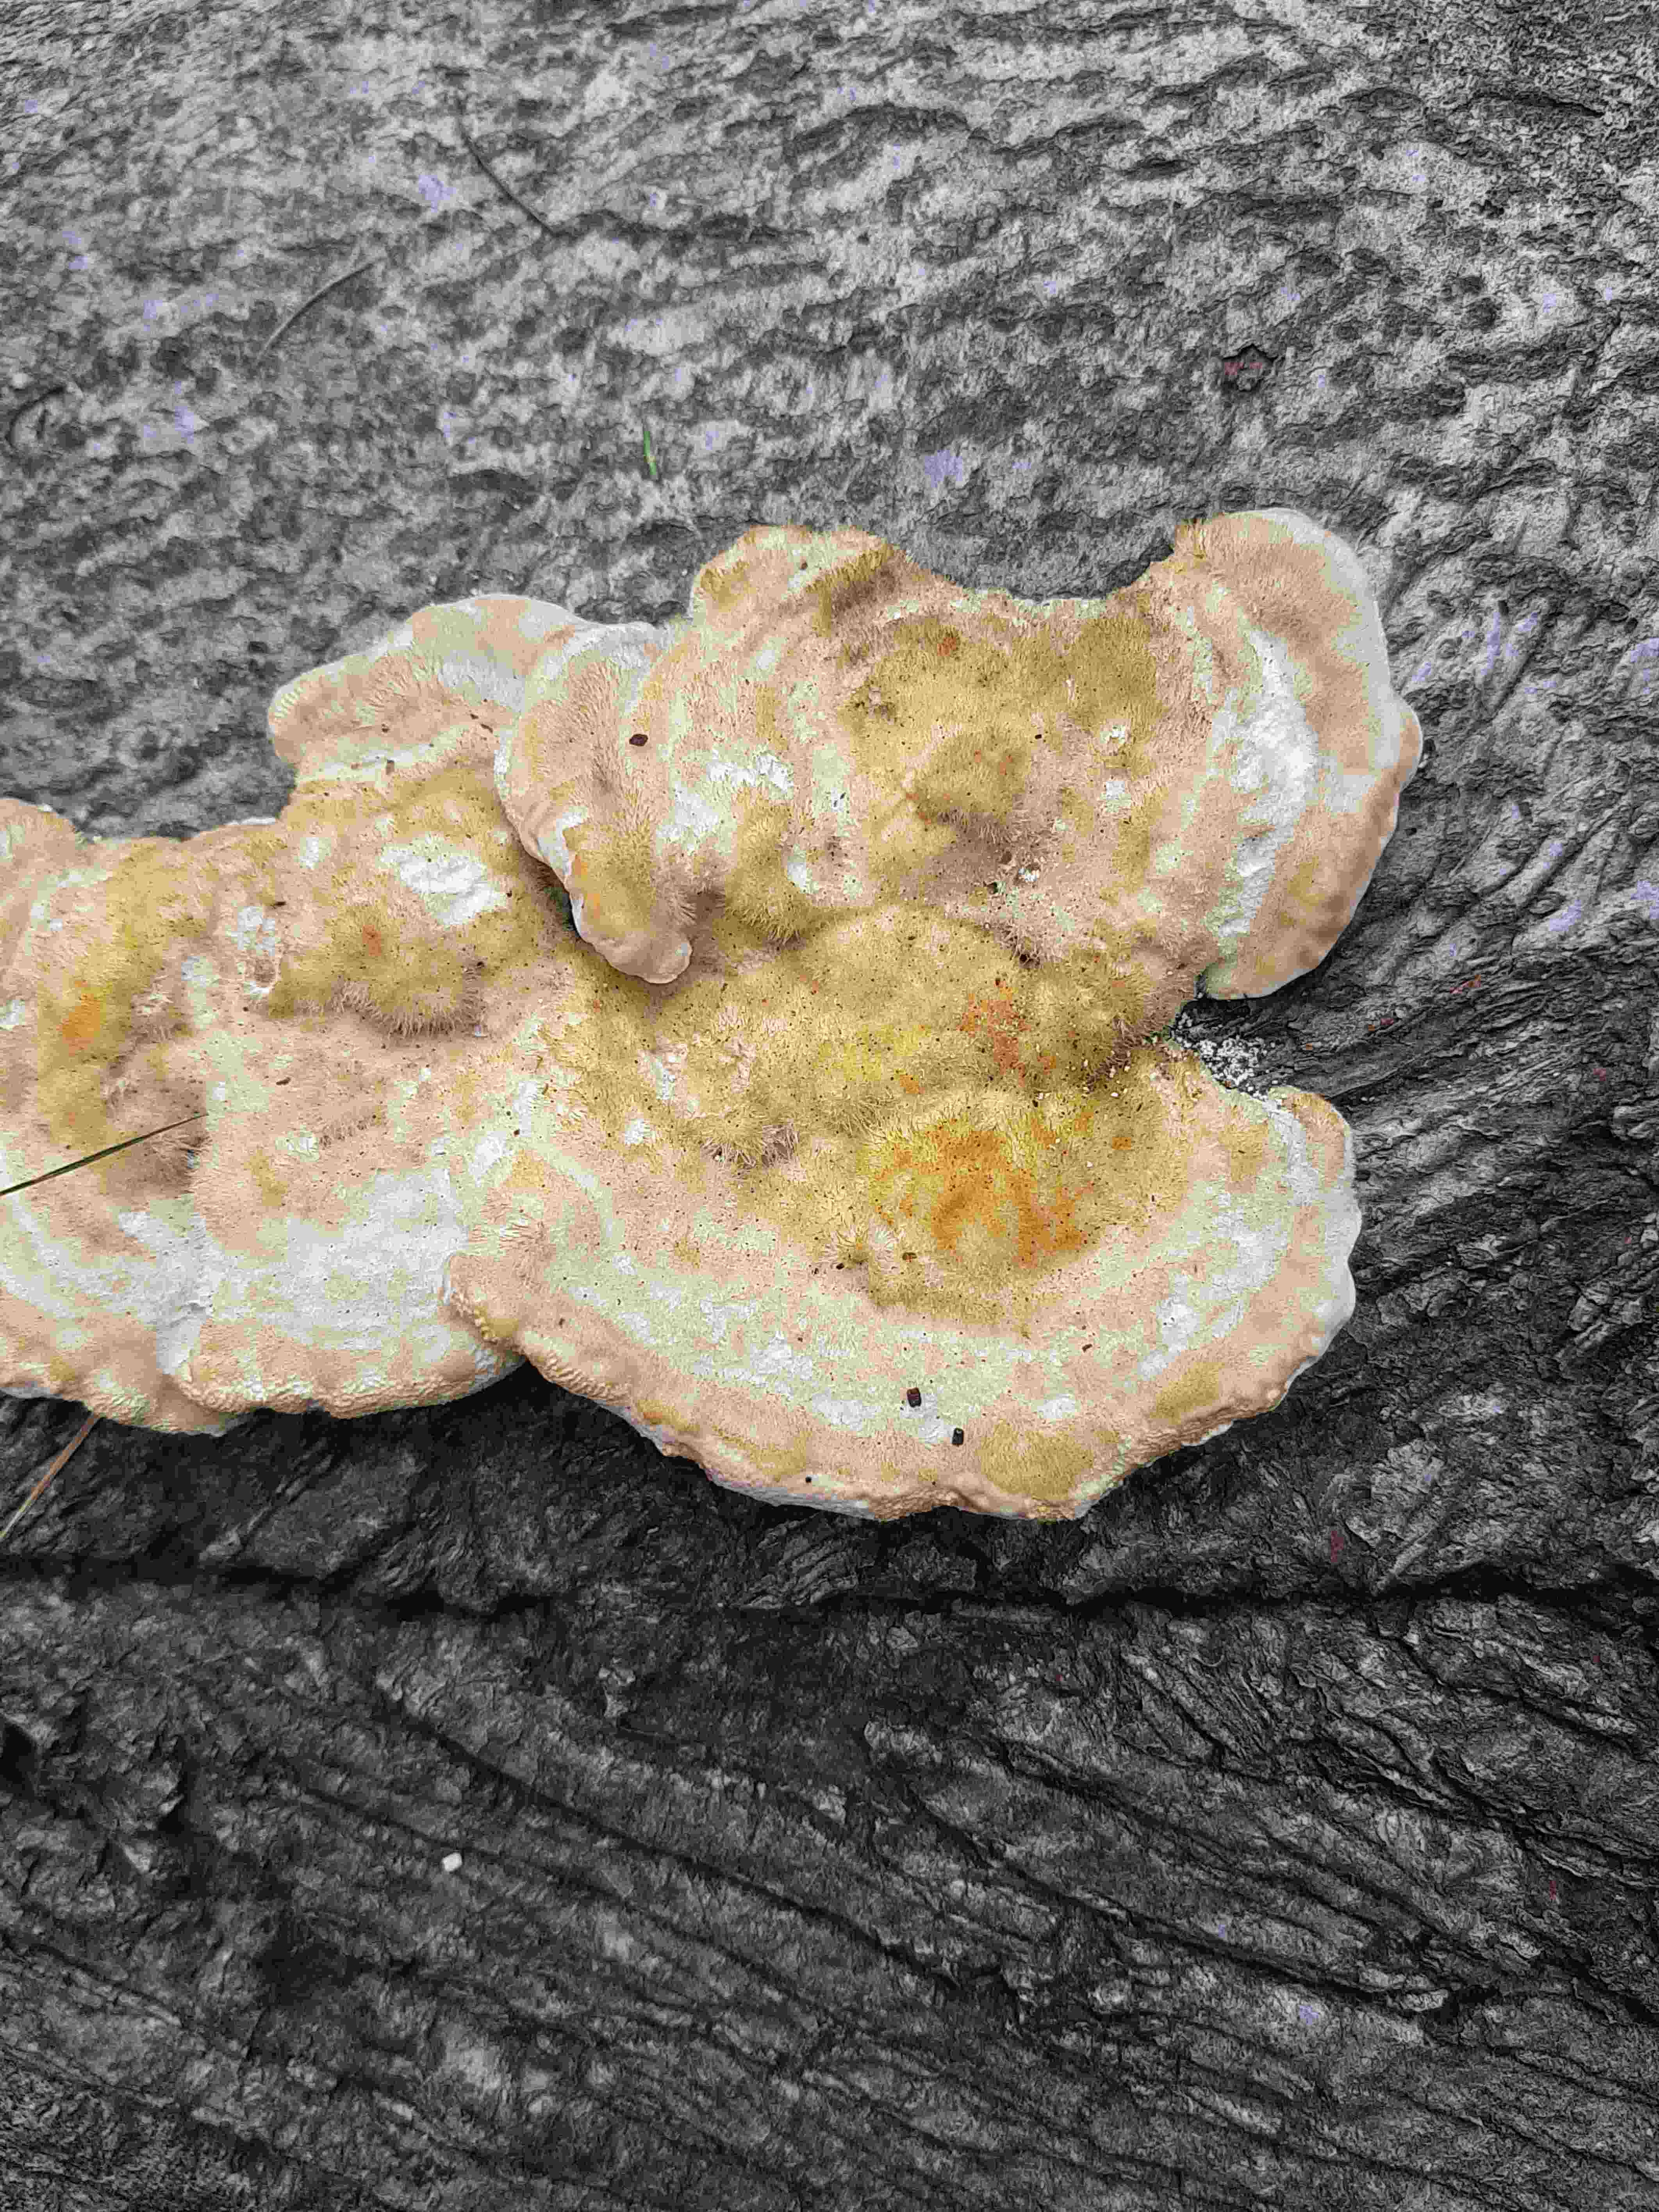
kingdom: Fungi
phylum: Basidiomycota
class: Agaricomycetes
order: Polyporales
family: Polyporaceae
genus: Trametes
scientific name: Trametes gibbosa
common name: puklet læderporesvamp
